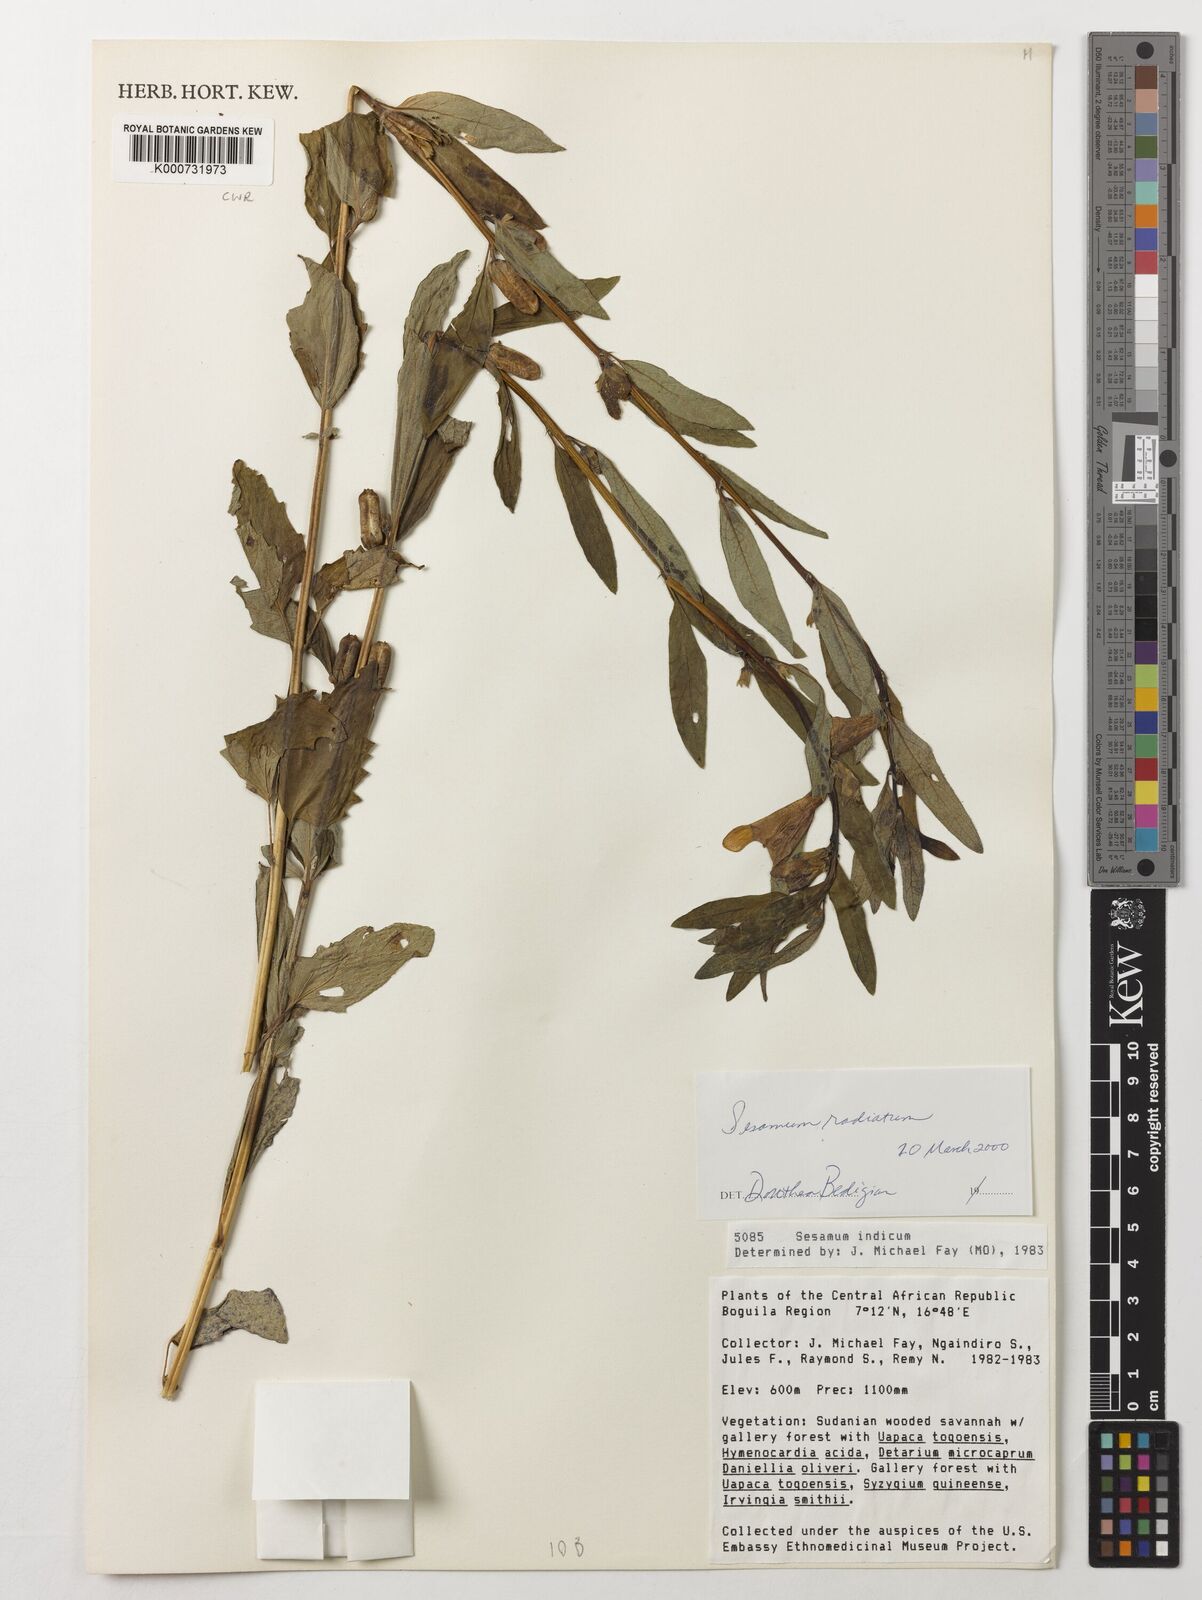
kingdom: Plantae
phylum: Tracheophyta
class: Magnoliopsida
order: Lamiales
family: Pedaliaceae
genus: Sesamum
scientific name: Sesamum
